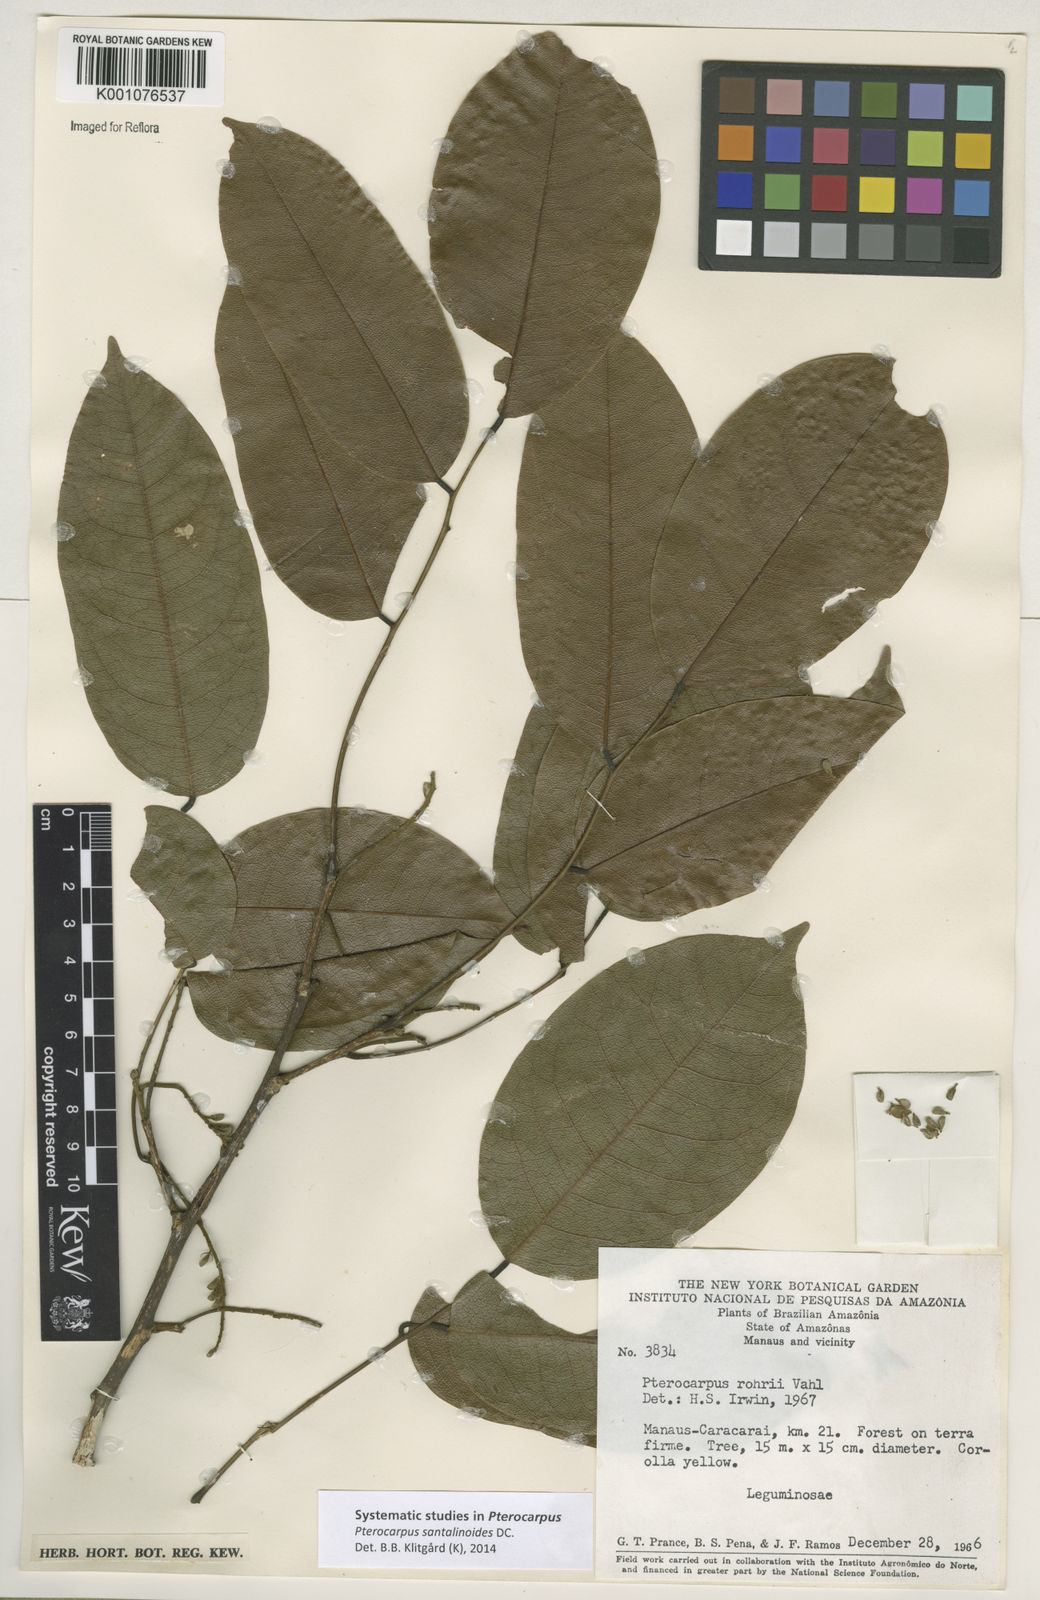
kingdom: Plantae
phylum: Tracheophyta
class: Magnoliopsida
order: Fabales
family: Fabaceae
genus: Pterocarpus
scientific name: Pterocarpus santalinoides
